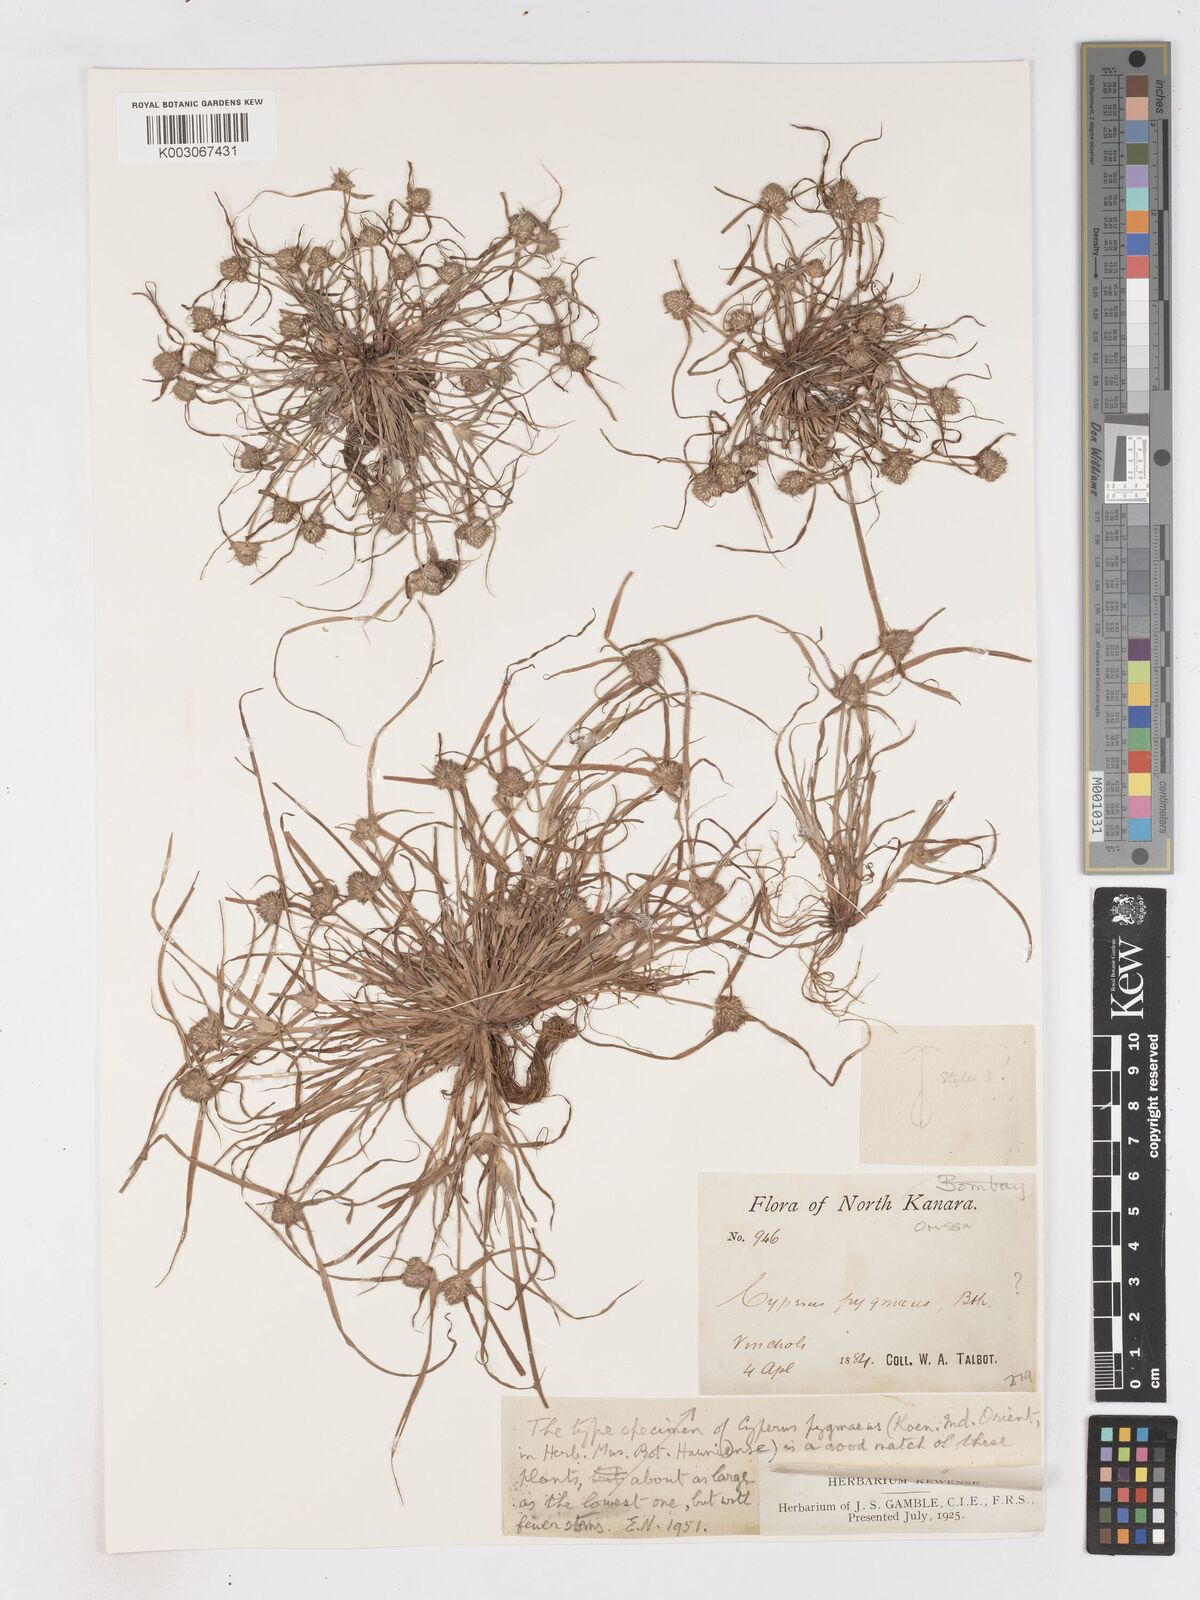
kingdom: Plantae
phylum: Tracheophyta
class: Liliopsida
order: Poales
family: Cyperaceae
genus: Cyperus
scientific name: Cyperus michelianus
